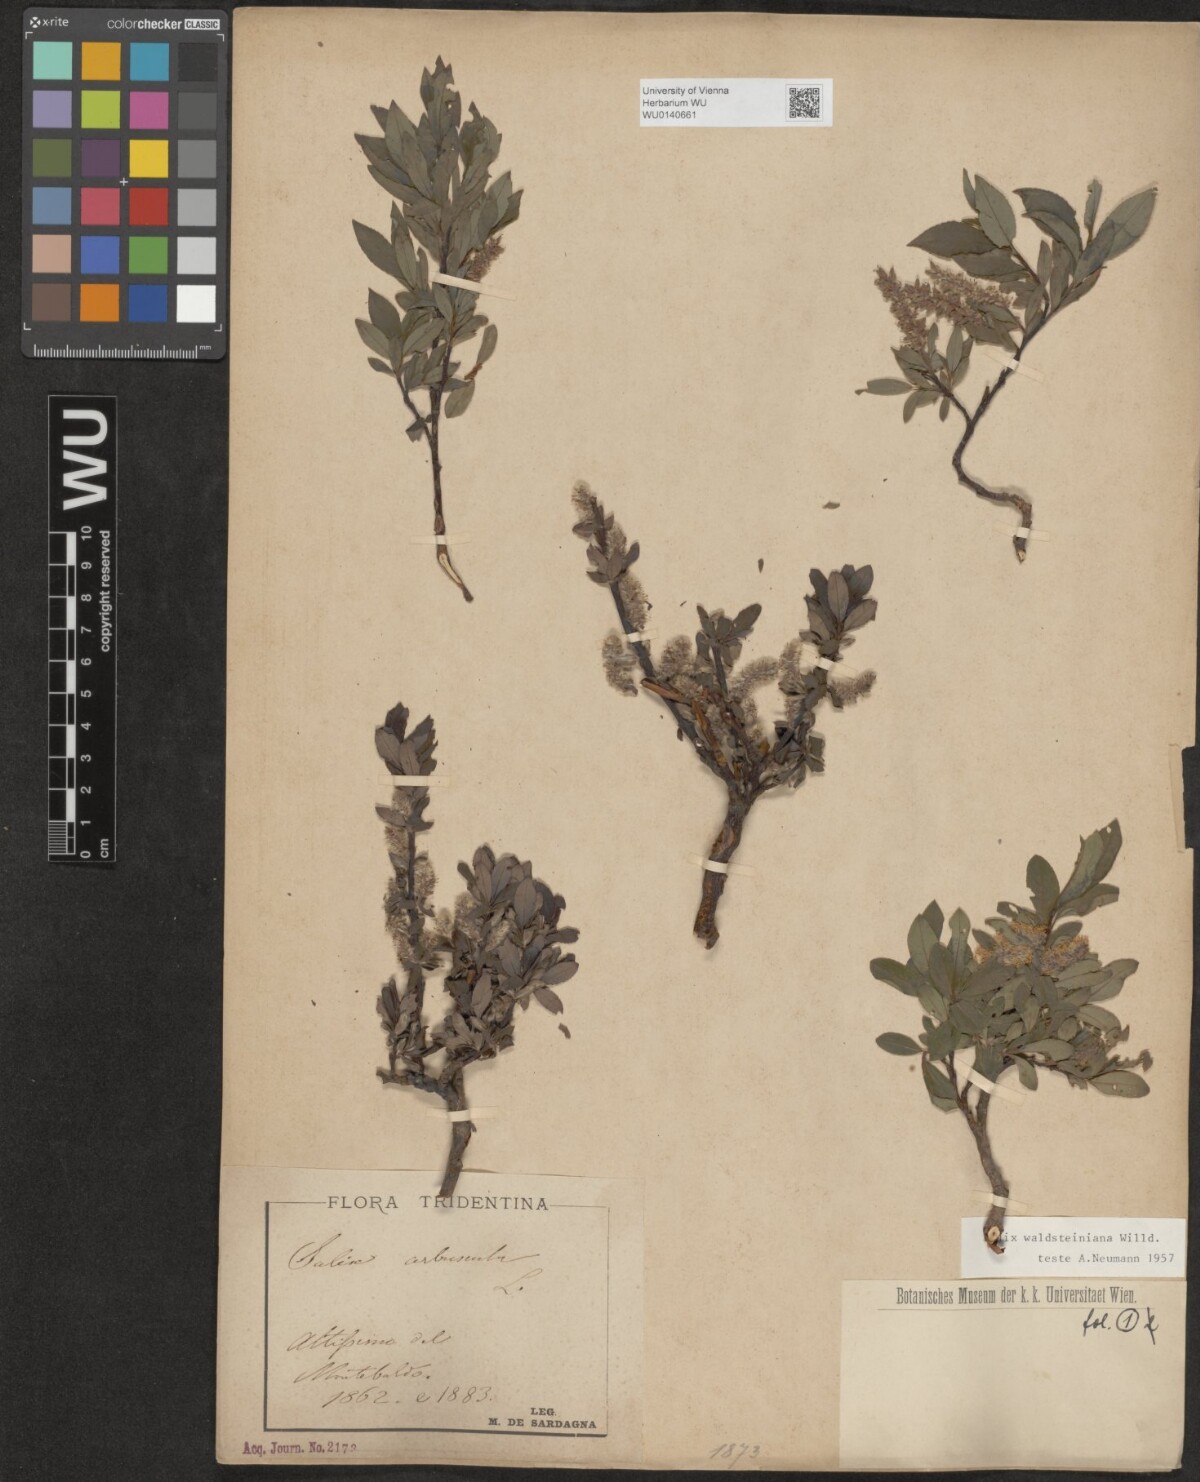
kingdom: Plantae
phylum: Tracheophyta
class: Magnoliopsida
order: Malpighiales
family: Salicaceae
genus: Salix
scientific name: Salix waldsteiniana
